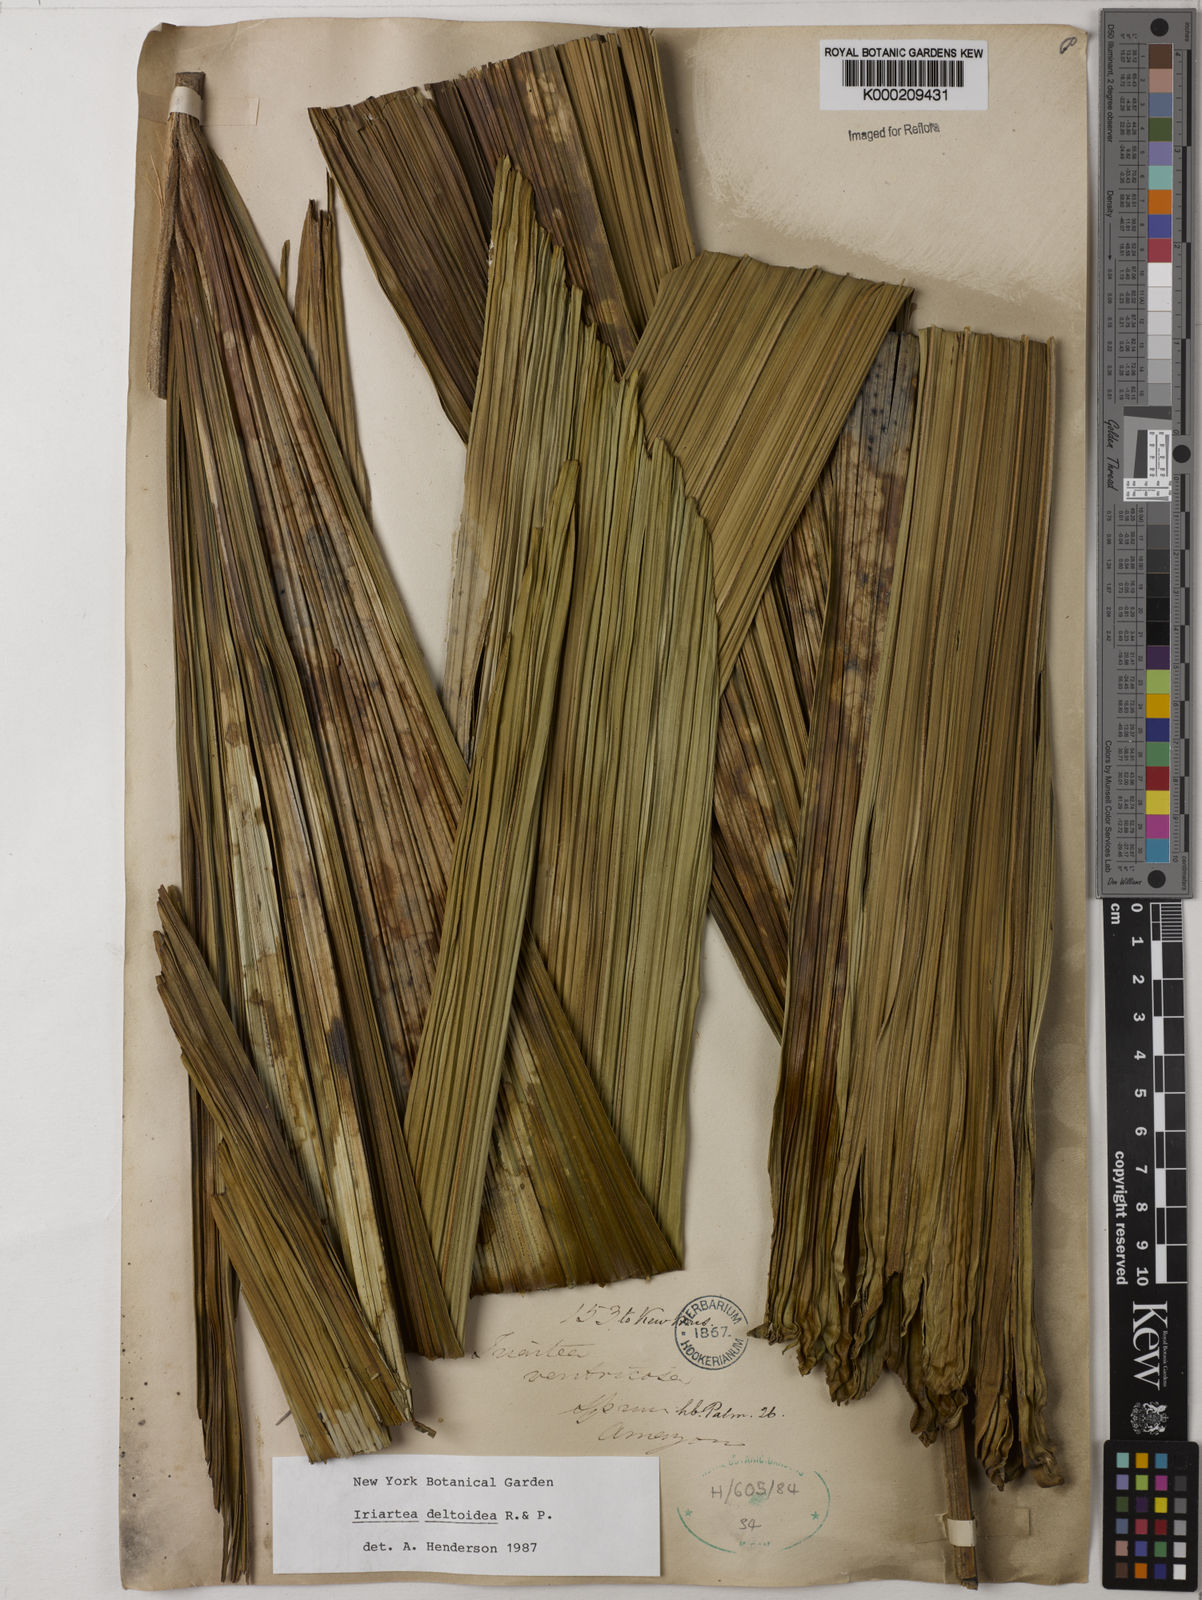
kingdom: Plantae
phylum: Tracheophyta
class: Liliopsida
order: Arecales
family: Arecaceae
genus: Iriartea
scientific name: Iriartea deltoidea
